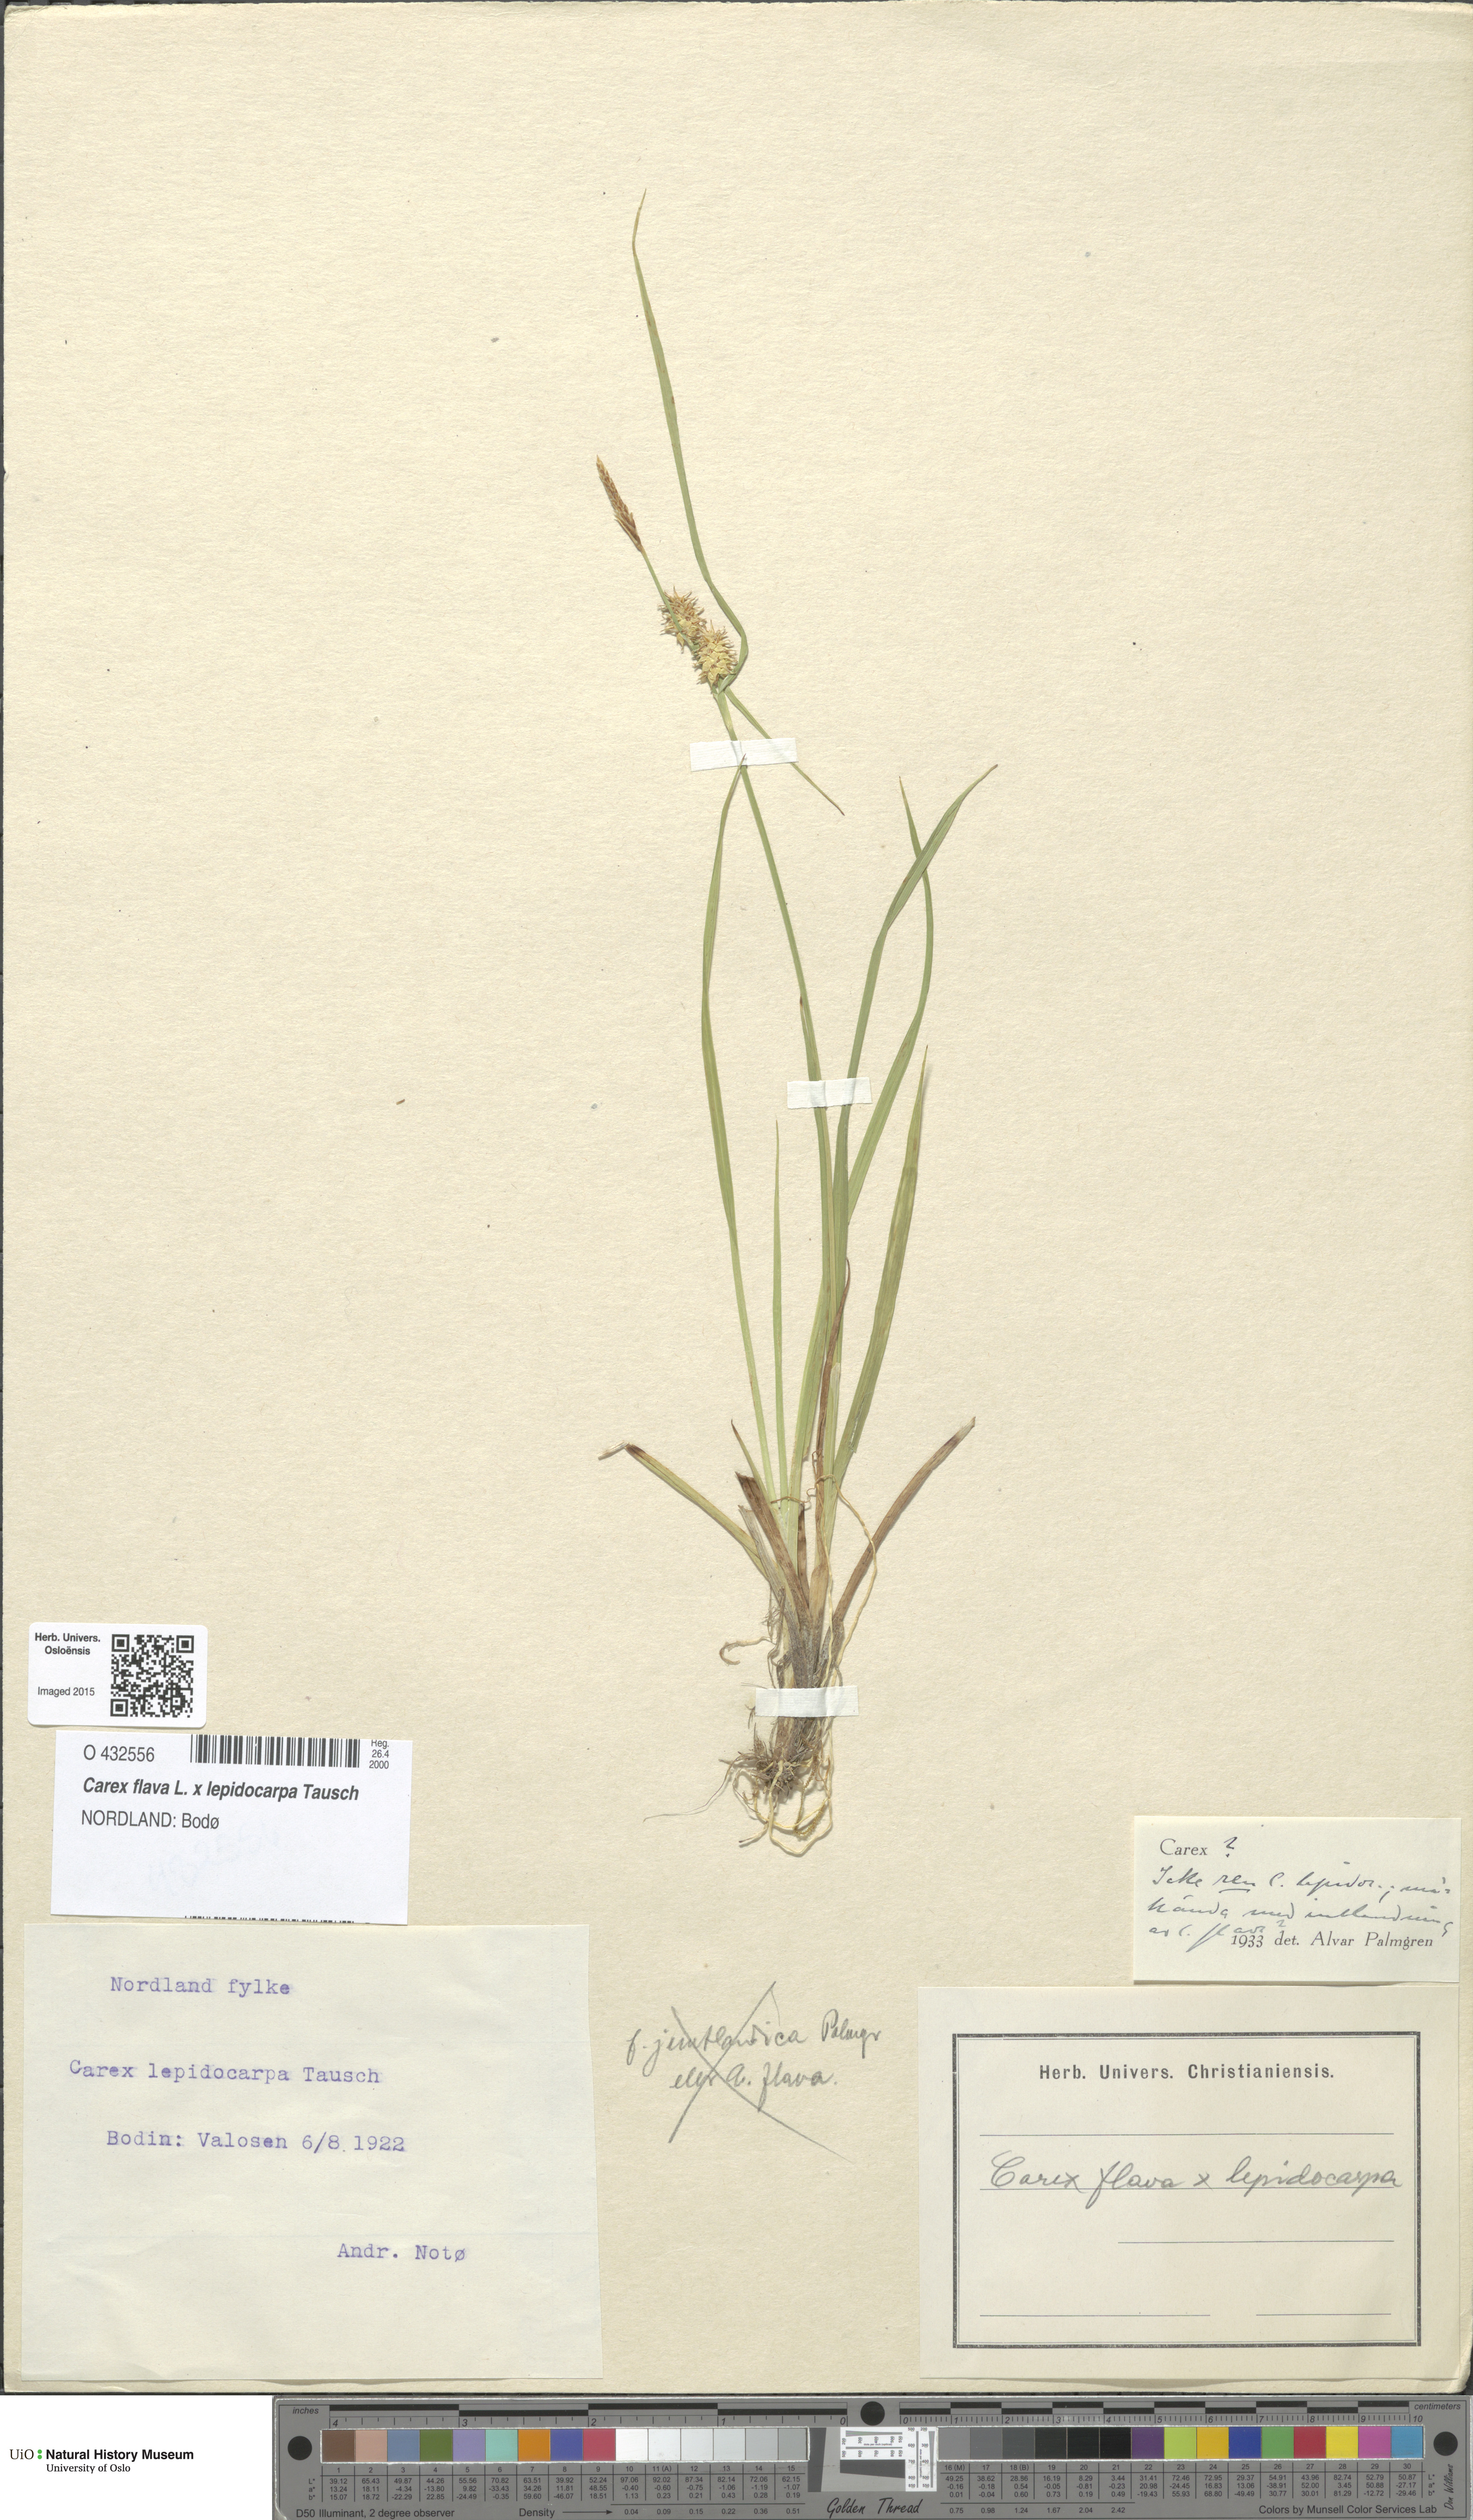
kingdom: Plantae
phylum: Tracheophyta
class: Liliopsida
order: Poales
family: Cyperaceae
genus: Carex
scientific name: Carex
